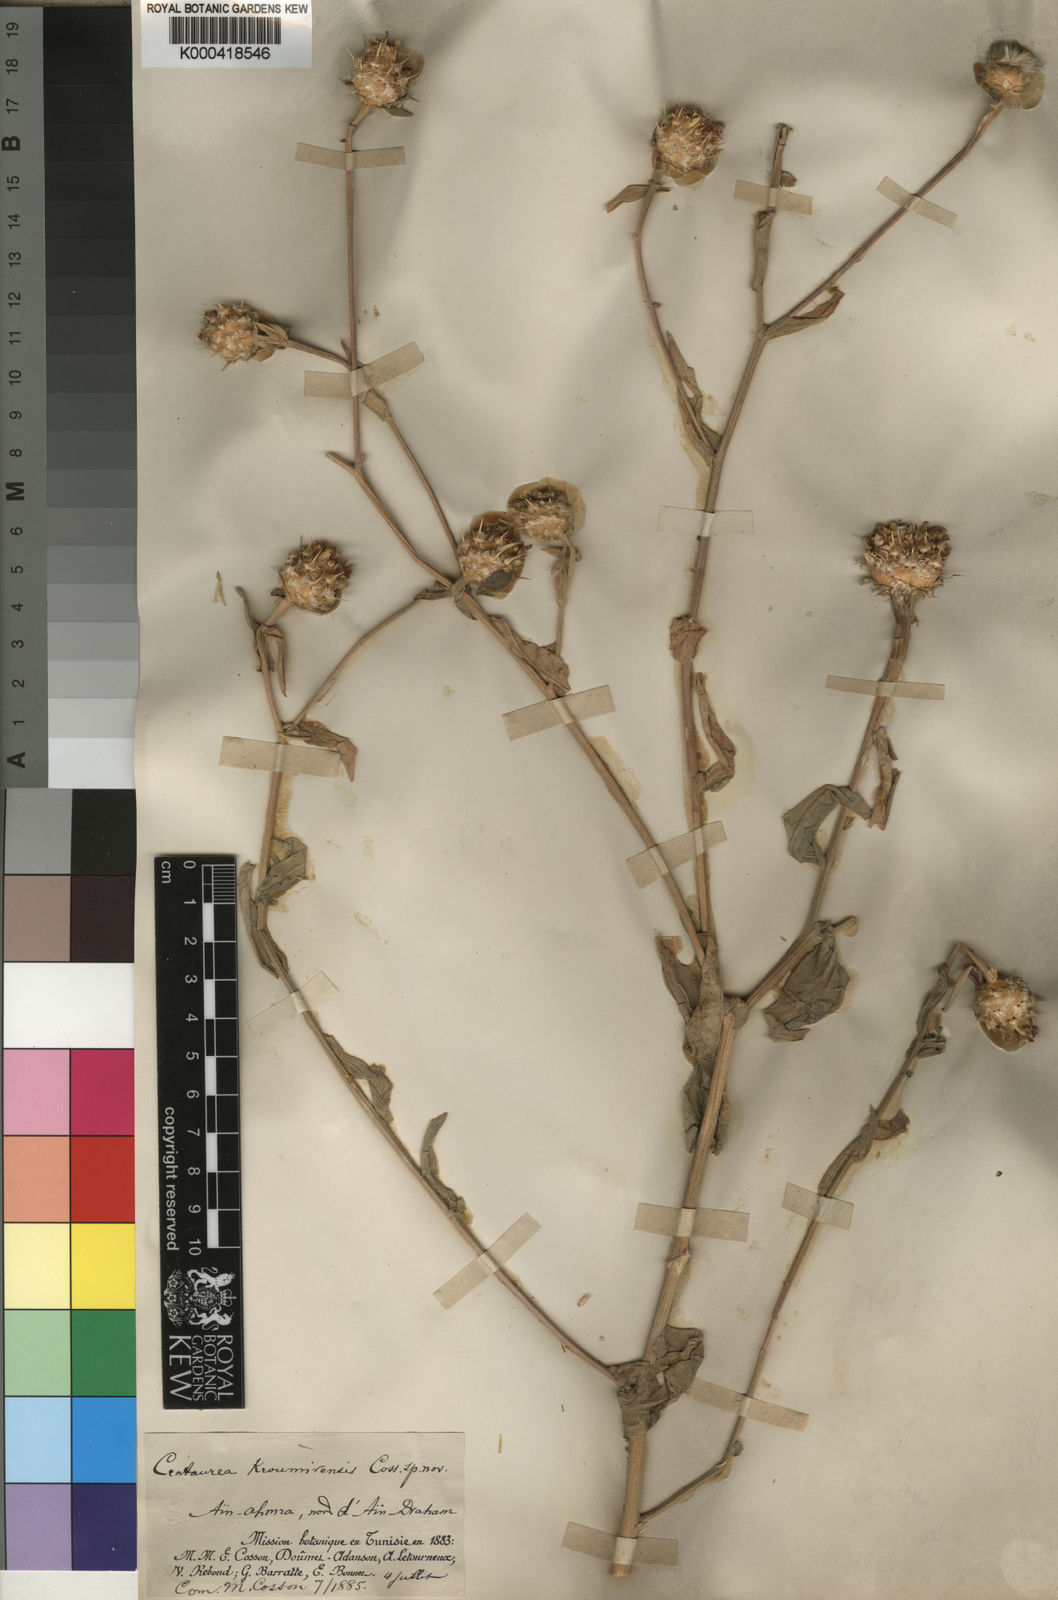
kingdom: Plantae
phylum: Tracheophyta
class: Magnoliopsida
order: Asterales
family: Asteraceae
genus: Centaurea
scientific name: Centaurea sicula
